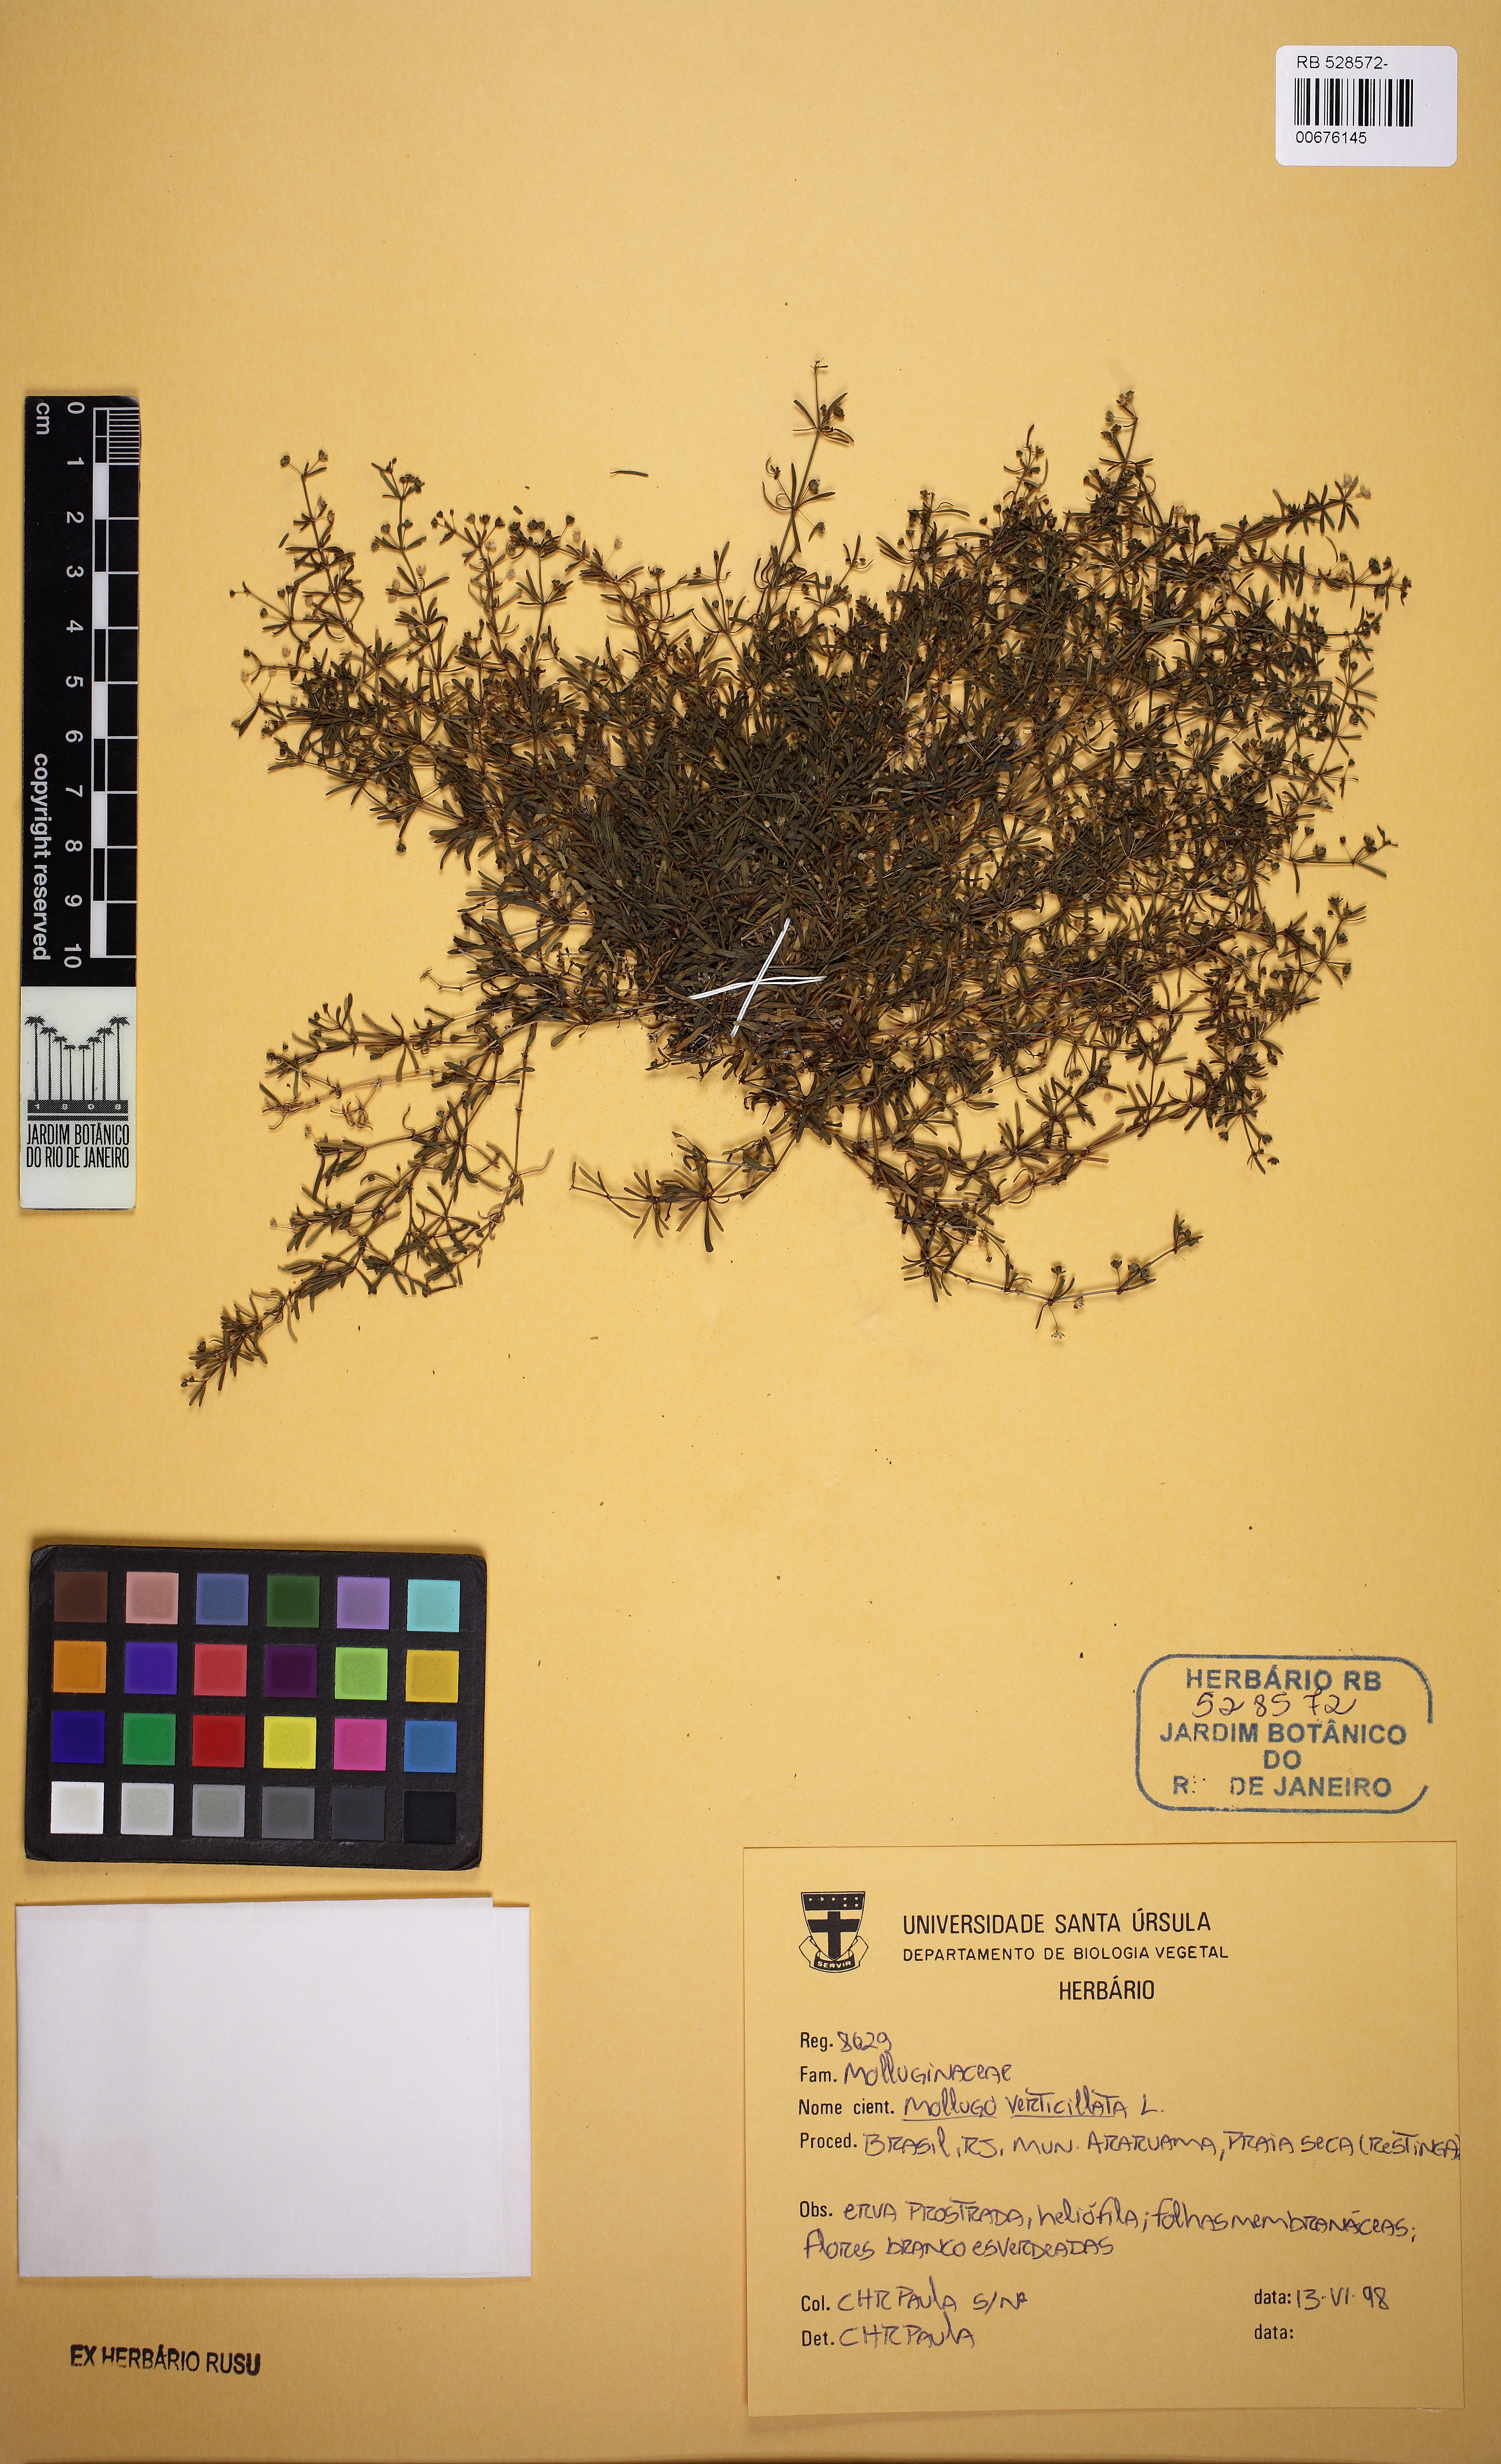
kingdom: Plantae
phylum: Tracheophyta
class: Magnoliopsida
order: Caryophyllales
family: Molluginaceae
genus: Mollugo
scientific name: Mollugo verticillata
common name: Green carpetweed
